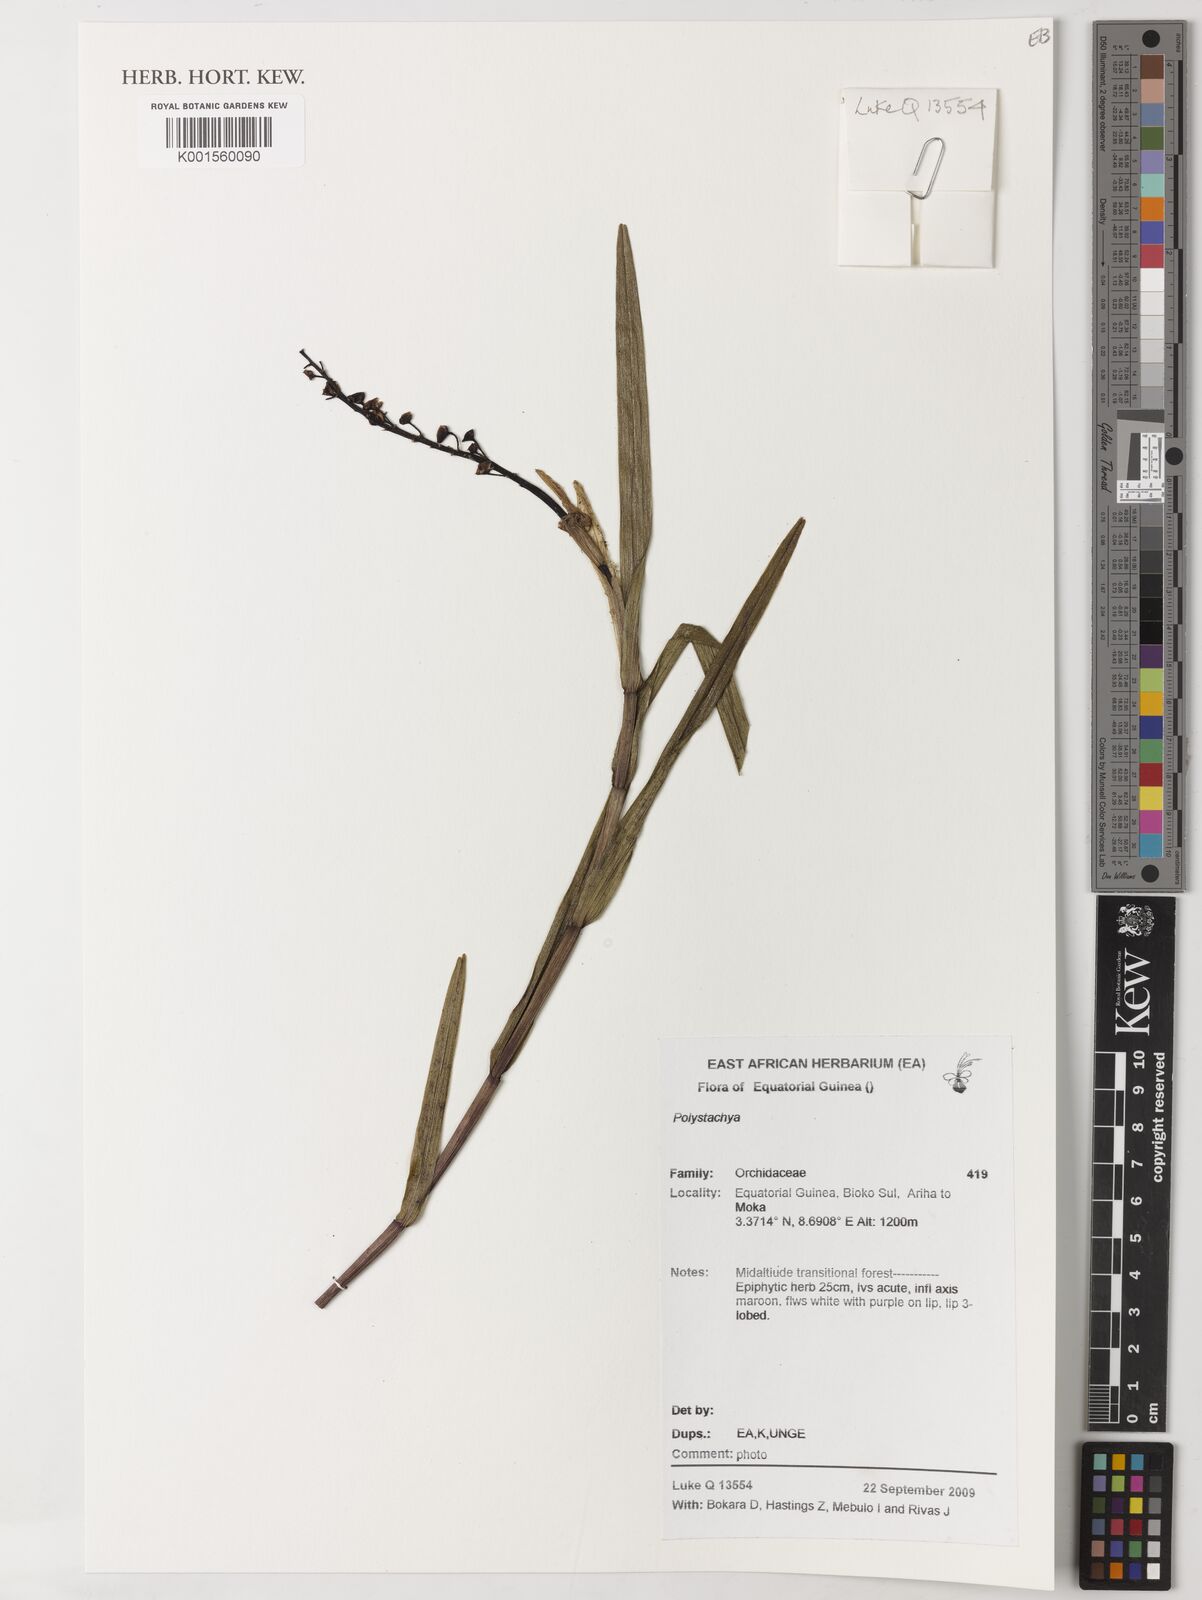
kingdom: Plantae
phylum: Tracheophyta
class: Liliopsida
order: Asparagales
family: Orchidaceae
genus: Polystachya
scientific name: Polystachya
